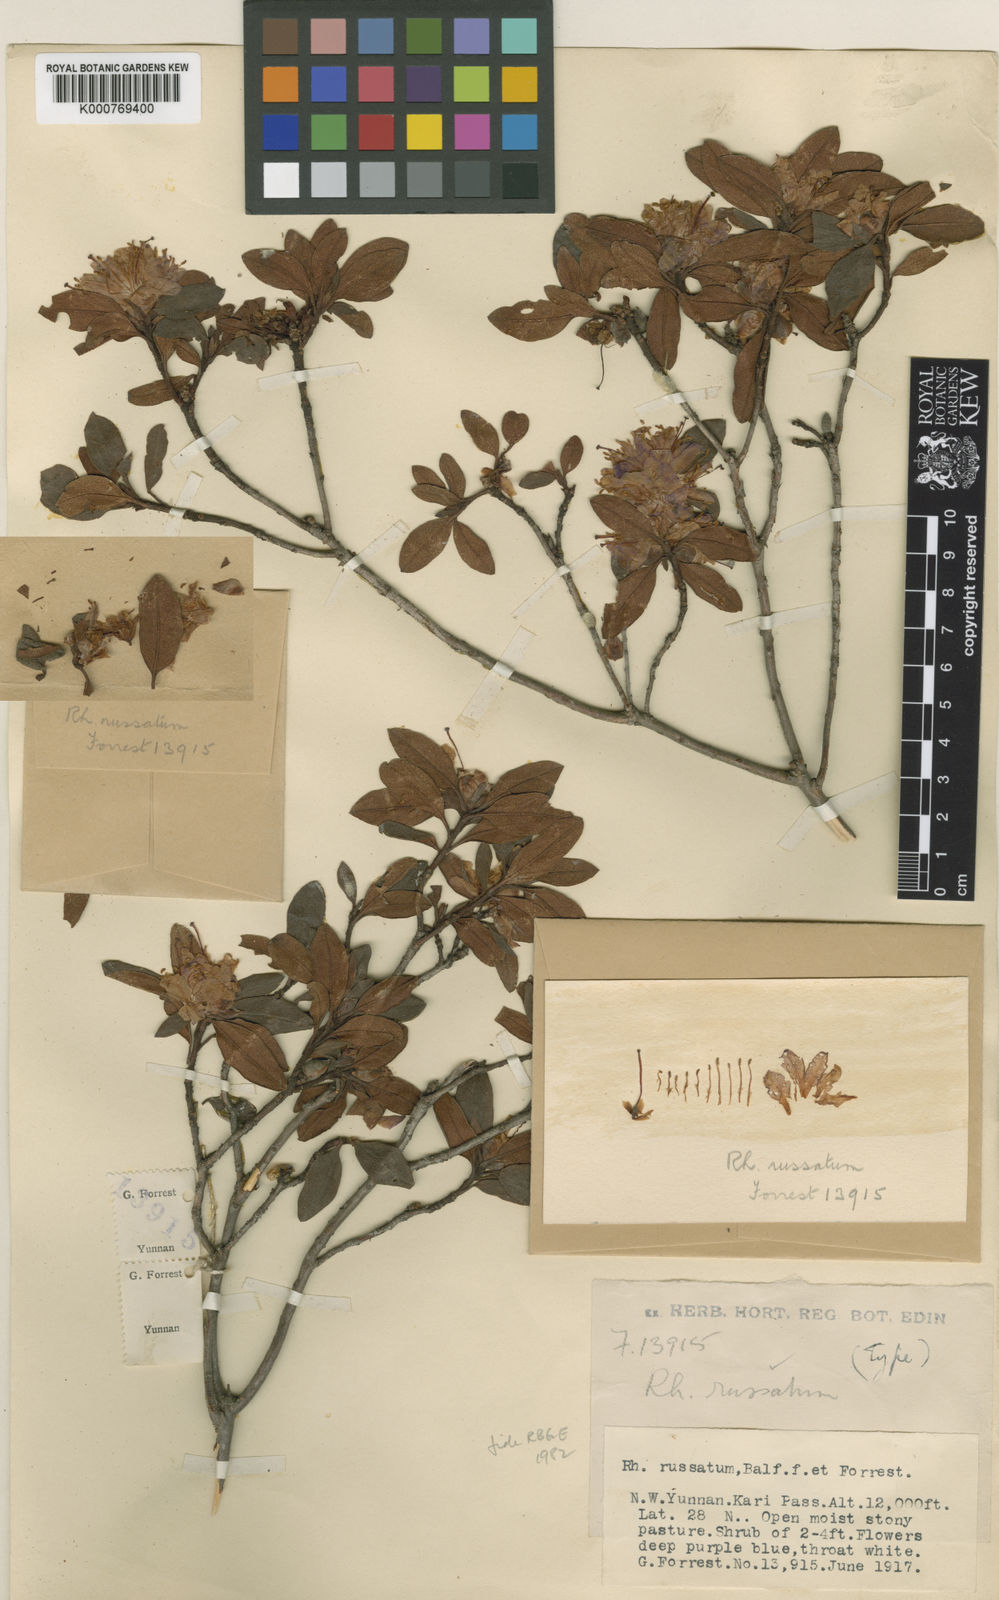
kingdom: Plantae
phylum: Tracheophyta
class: Magnoliopsida
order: Ericales
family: Ericaceae
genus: Rhododendron
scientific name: Rhododendron russatum
